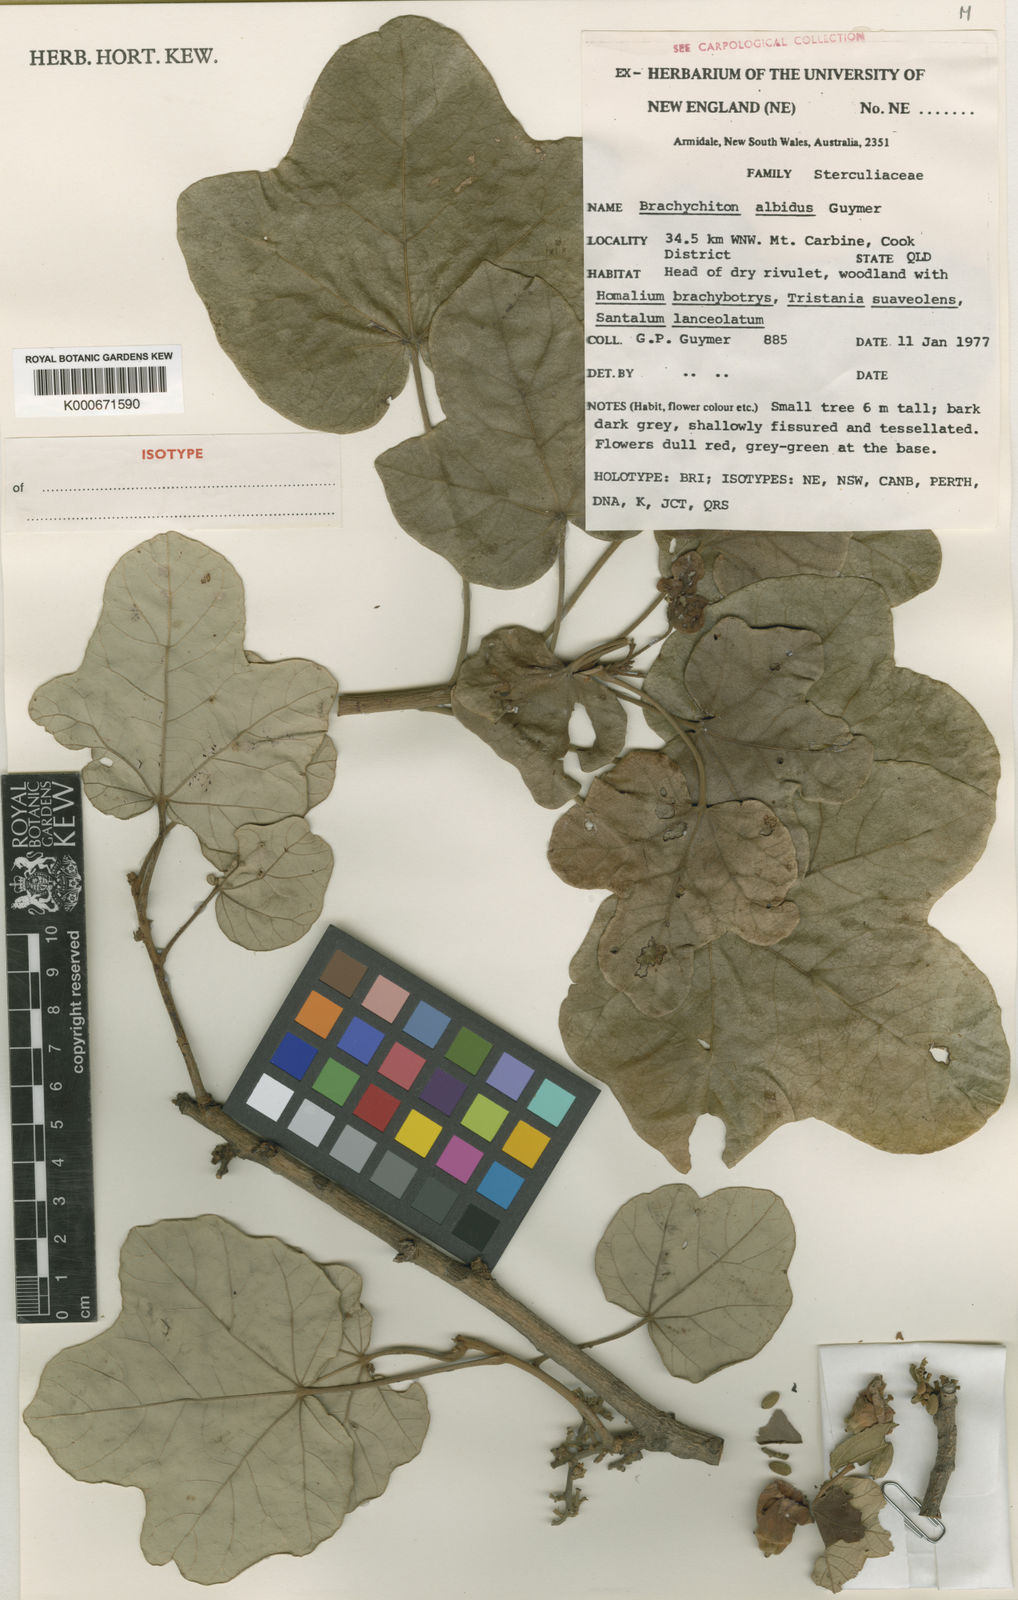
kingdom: Plantae
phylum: Tracheophyta
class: Magnoliopsida
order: Malvales
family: Malvaceae
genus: Brachychiton
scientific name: Brachychiton albidus
